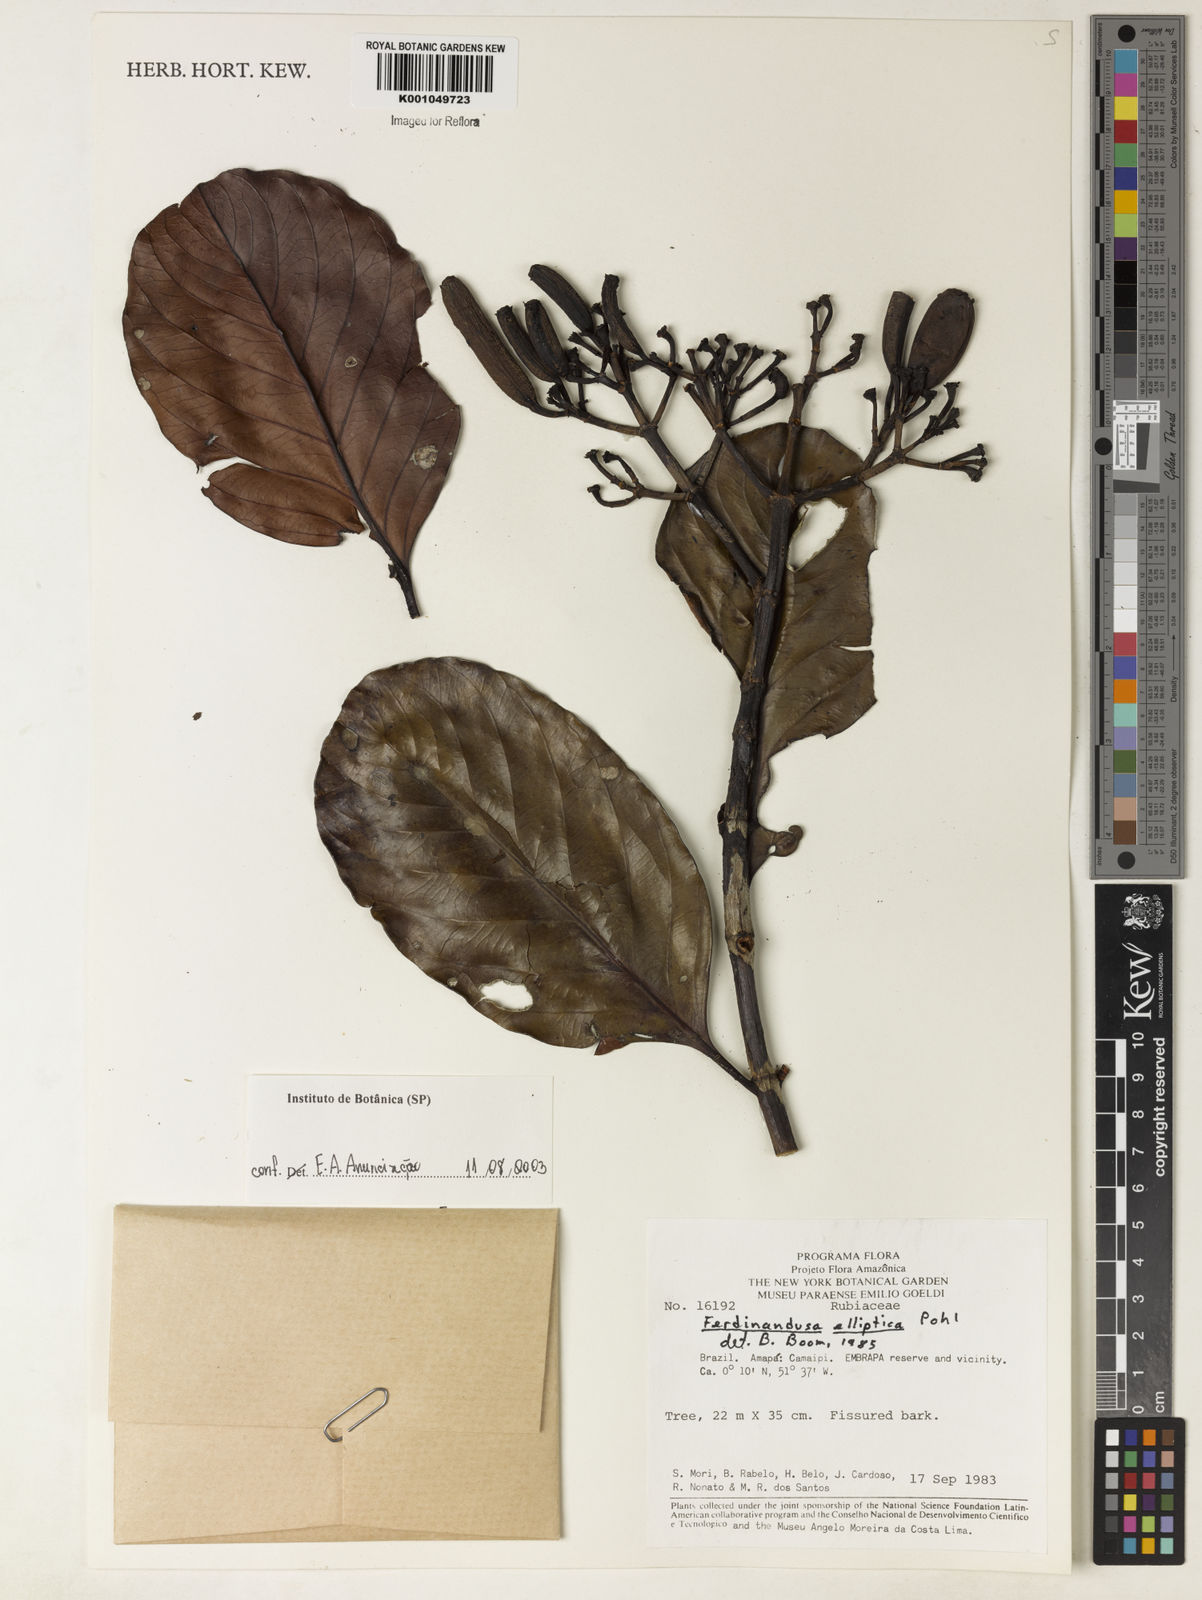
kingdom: Plantae
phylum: Tracheophyta
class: Magnoliopsida
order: Gentianales
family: Rubiaceae
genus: Ferdinandusa
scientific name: Ferdinandusa elliptica
